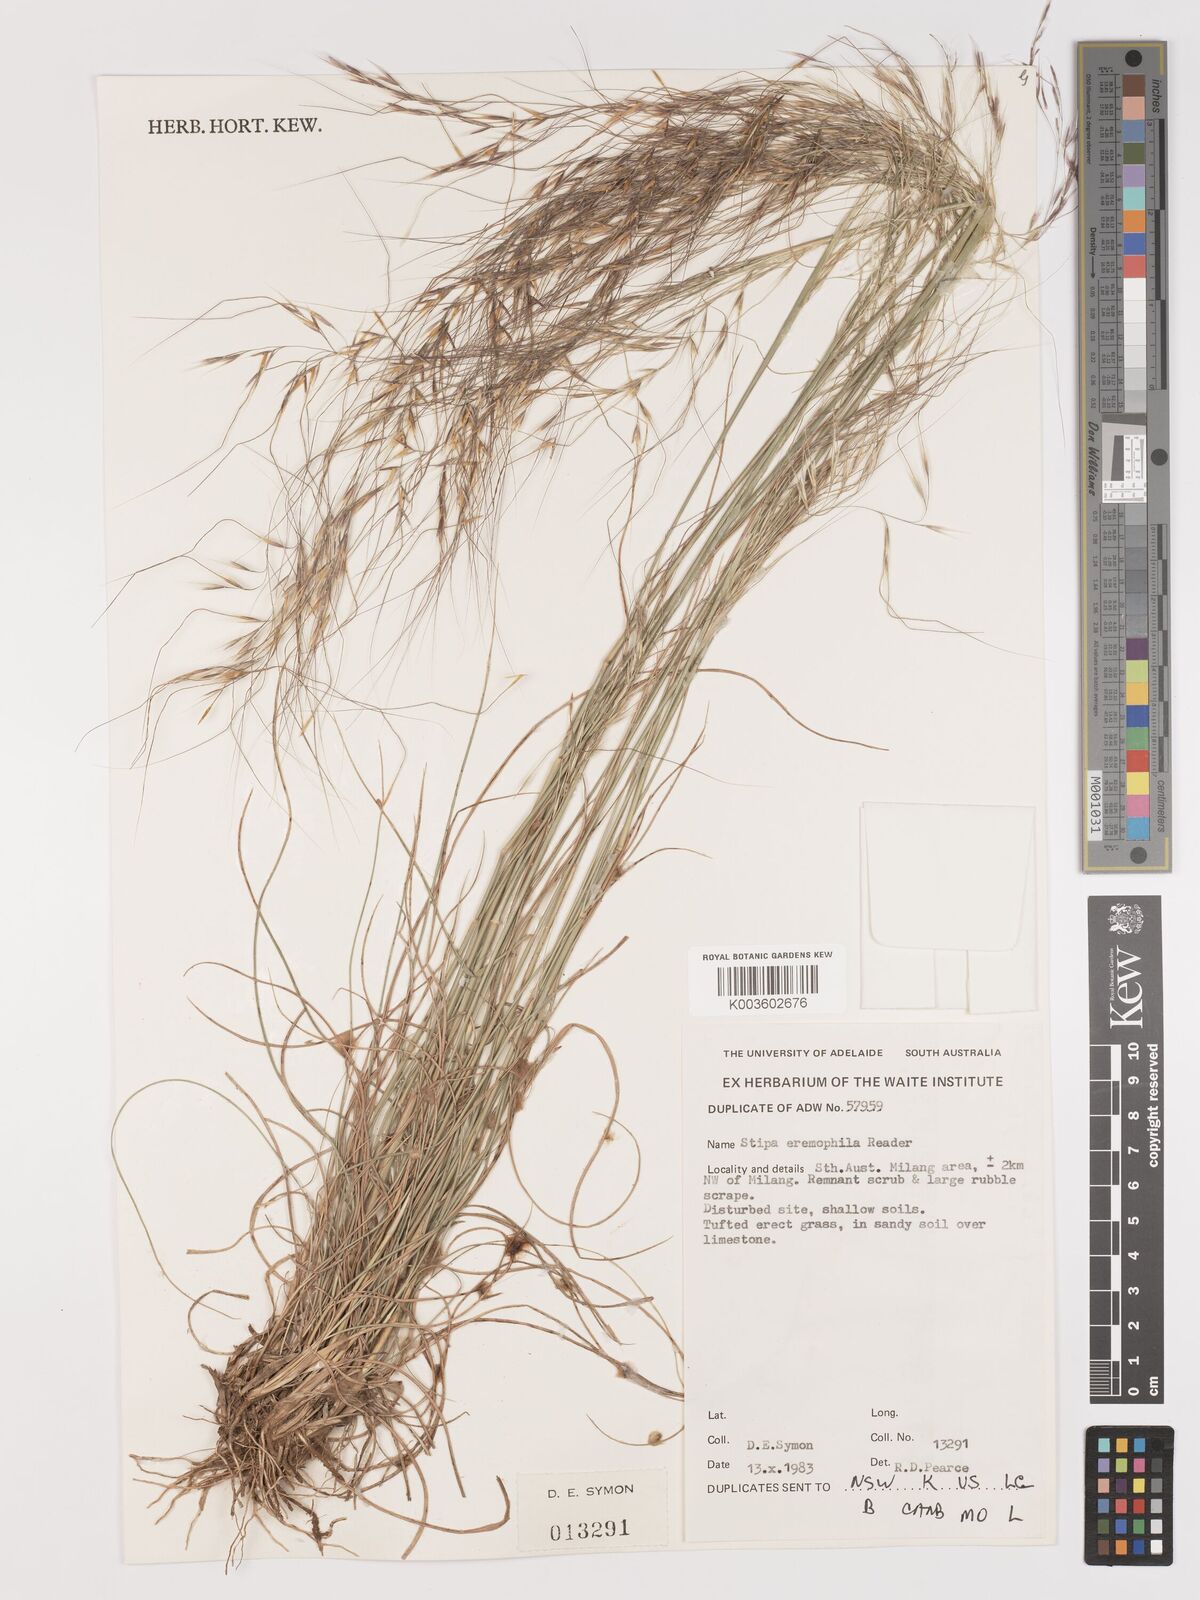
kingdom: Plantae
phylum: Tracheophyta
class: Liliopsida
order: Poales
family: Poaceae
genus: Austrostipa
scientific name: Austrostipa eremophila
